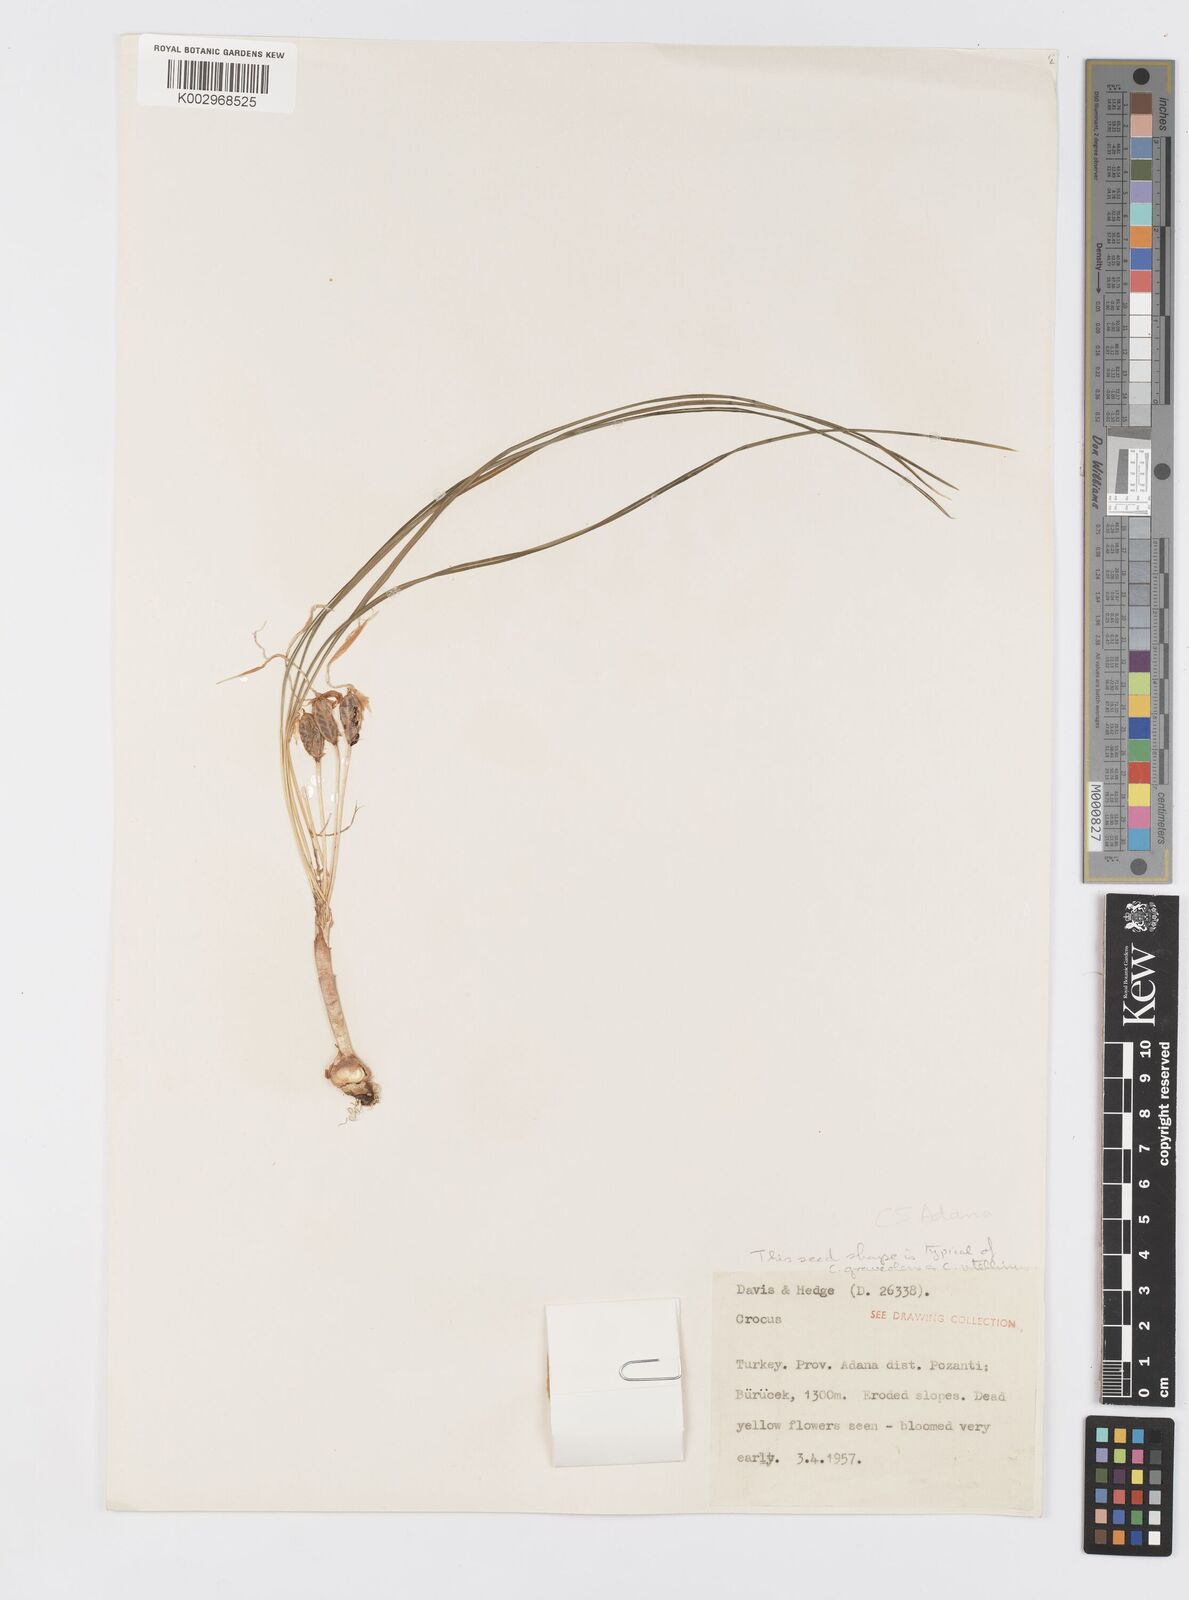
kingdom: Plantae
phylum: Tracheophyta
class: Liliopsida
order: Asparagales
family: Iridaceae
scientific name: Iridaceae
